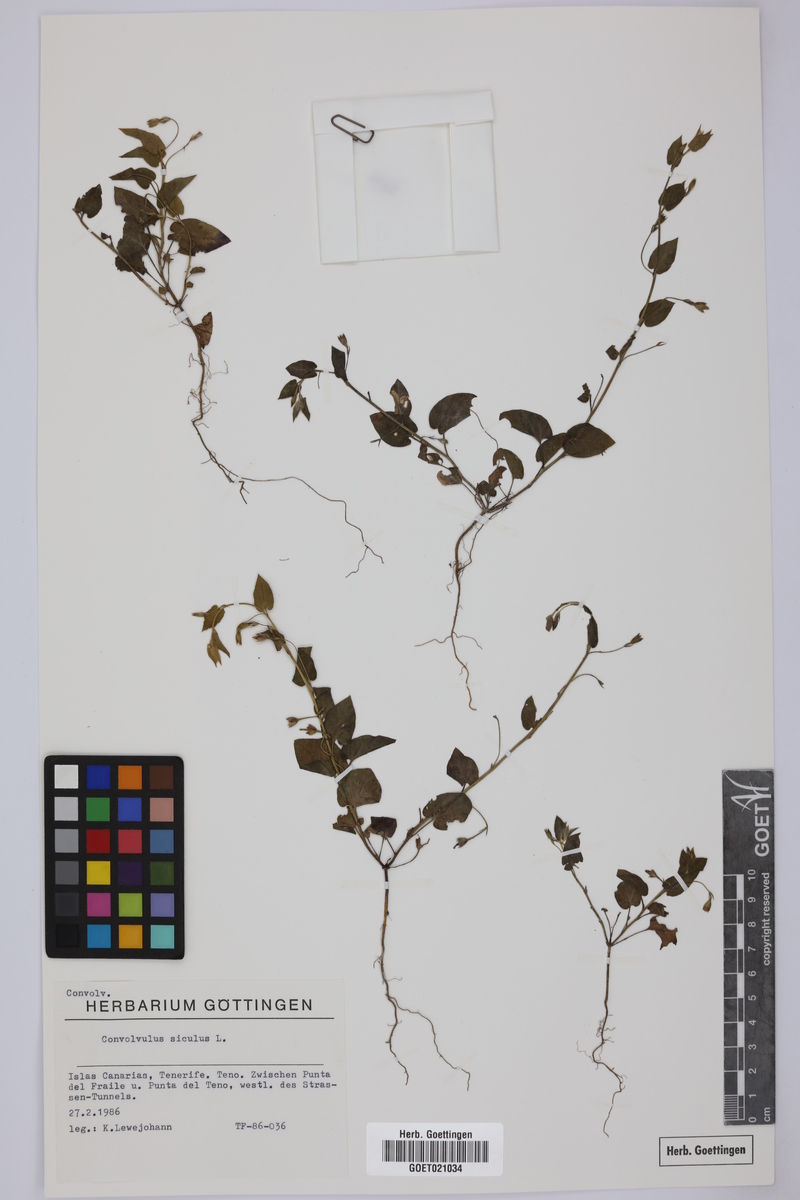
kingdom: Plantae
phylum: Tracheophyta
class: Magnoliopsida
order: Solanales
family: Convolvulaceae
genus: Convolvulus
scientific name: Convolvulus siculus
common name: Small blue-convolvulus
